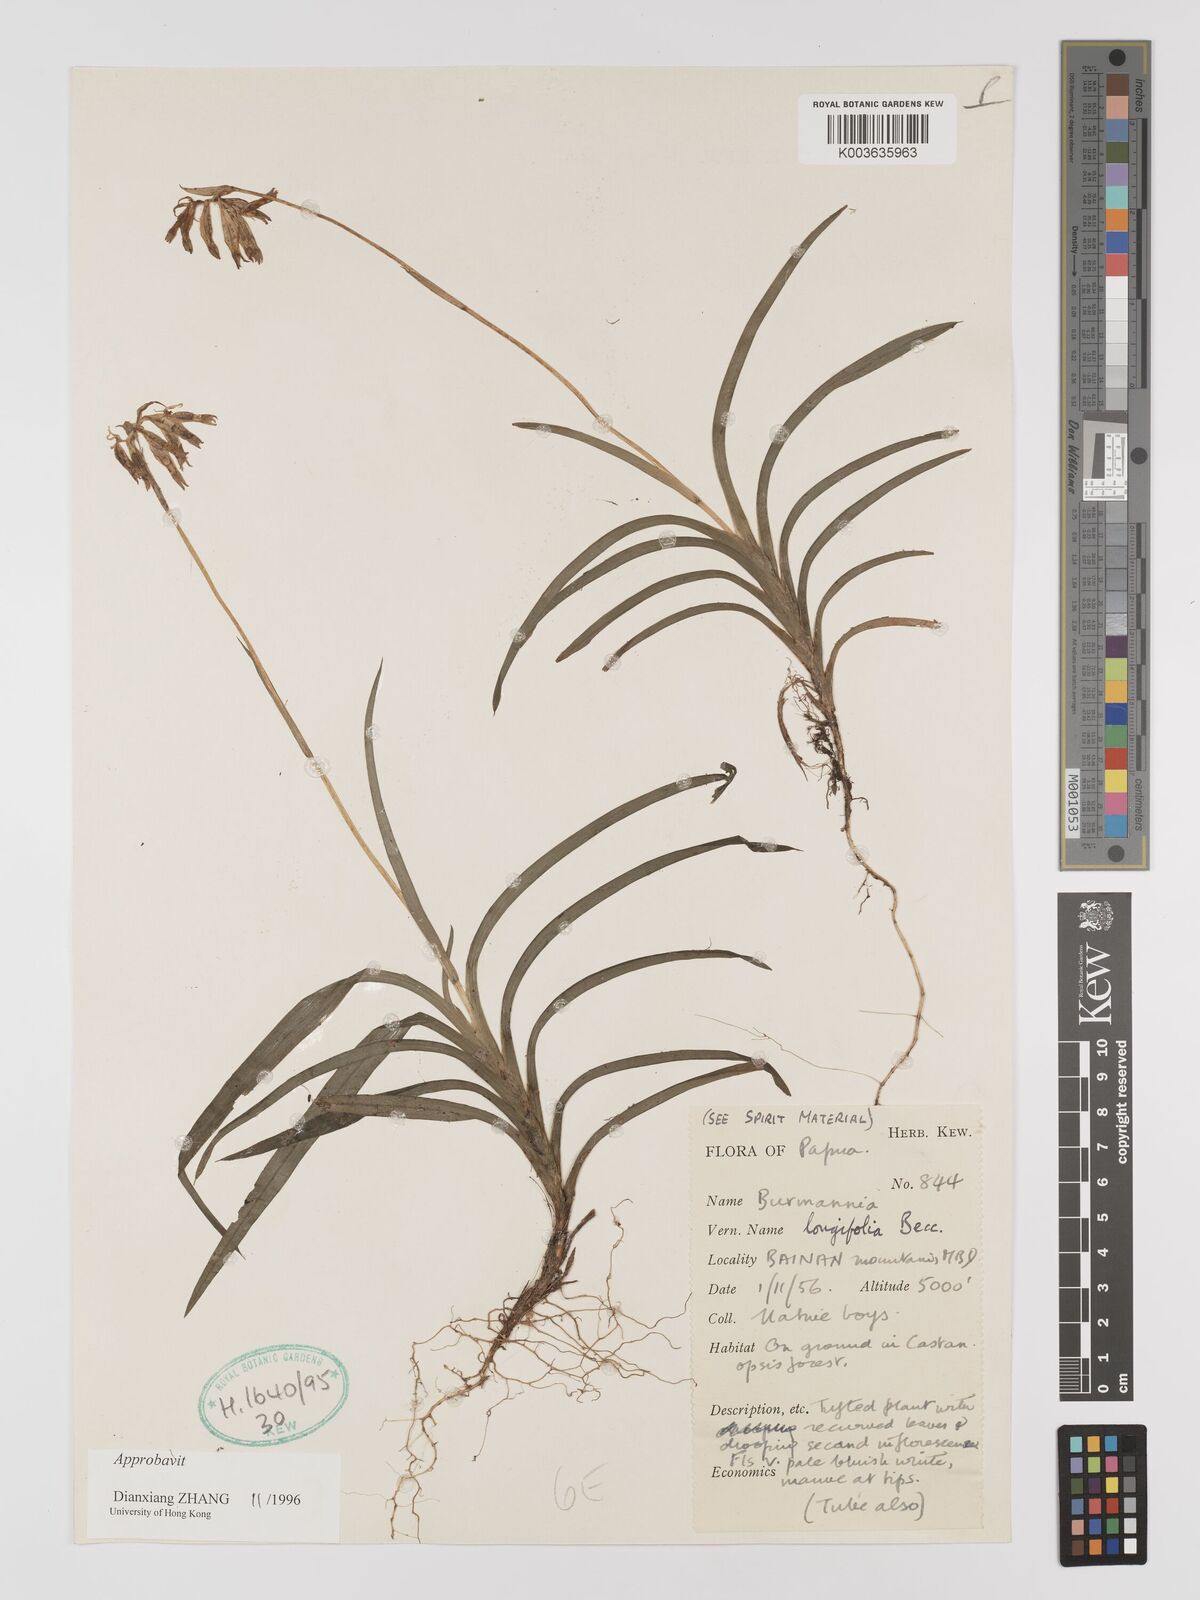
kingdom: Plantae
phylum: Tracheophyta
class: Liliopsida
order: Dioscoreales
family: Burmanniaceae
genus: Burmannia
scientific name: Burmannia longifolia
